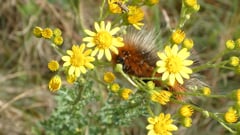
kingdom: Animalia
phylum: Arthropoda
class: Insecta
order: Lepidoptera
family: Erebidae
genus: Arctia
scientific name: Arctia caja
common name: Garden tiger
